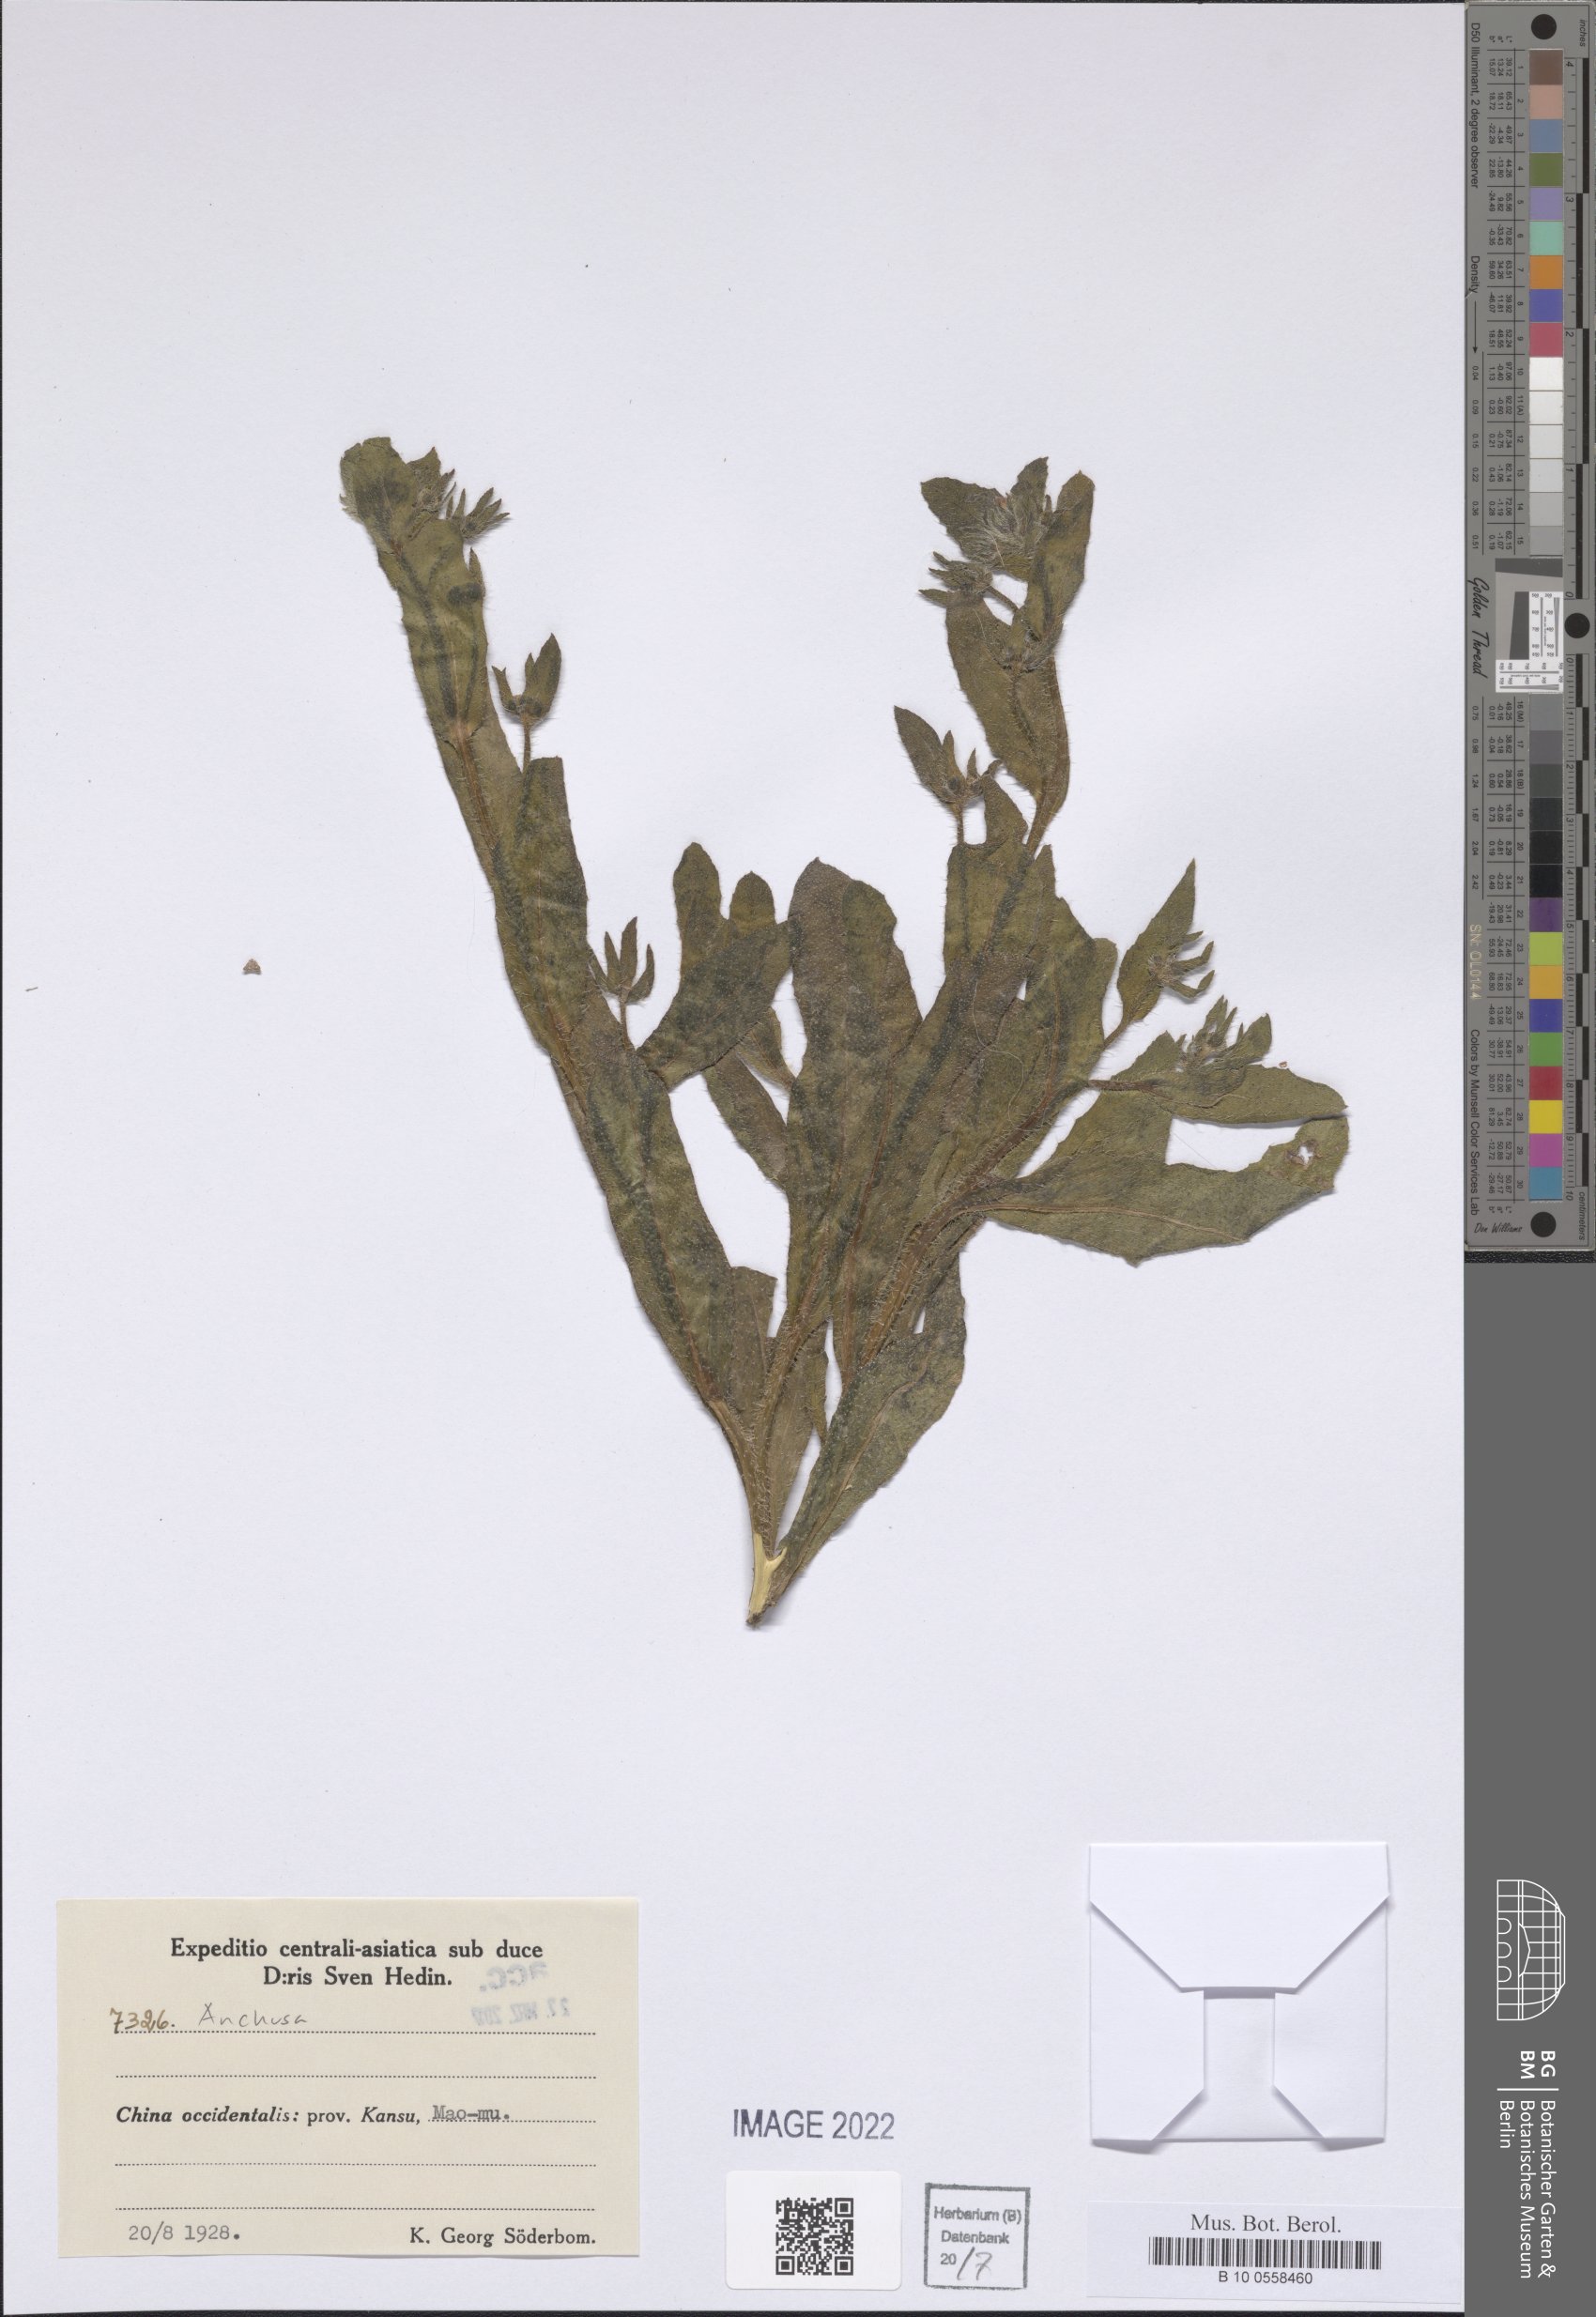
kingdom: Plantae
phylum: Tracheophyta
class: Magnoliopsida
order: Boraginales
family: Boraginaceae
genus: Anchusa
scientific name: Anchusa
